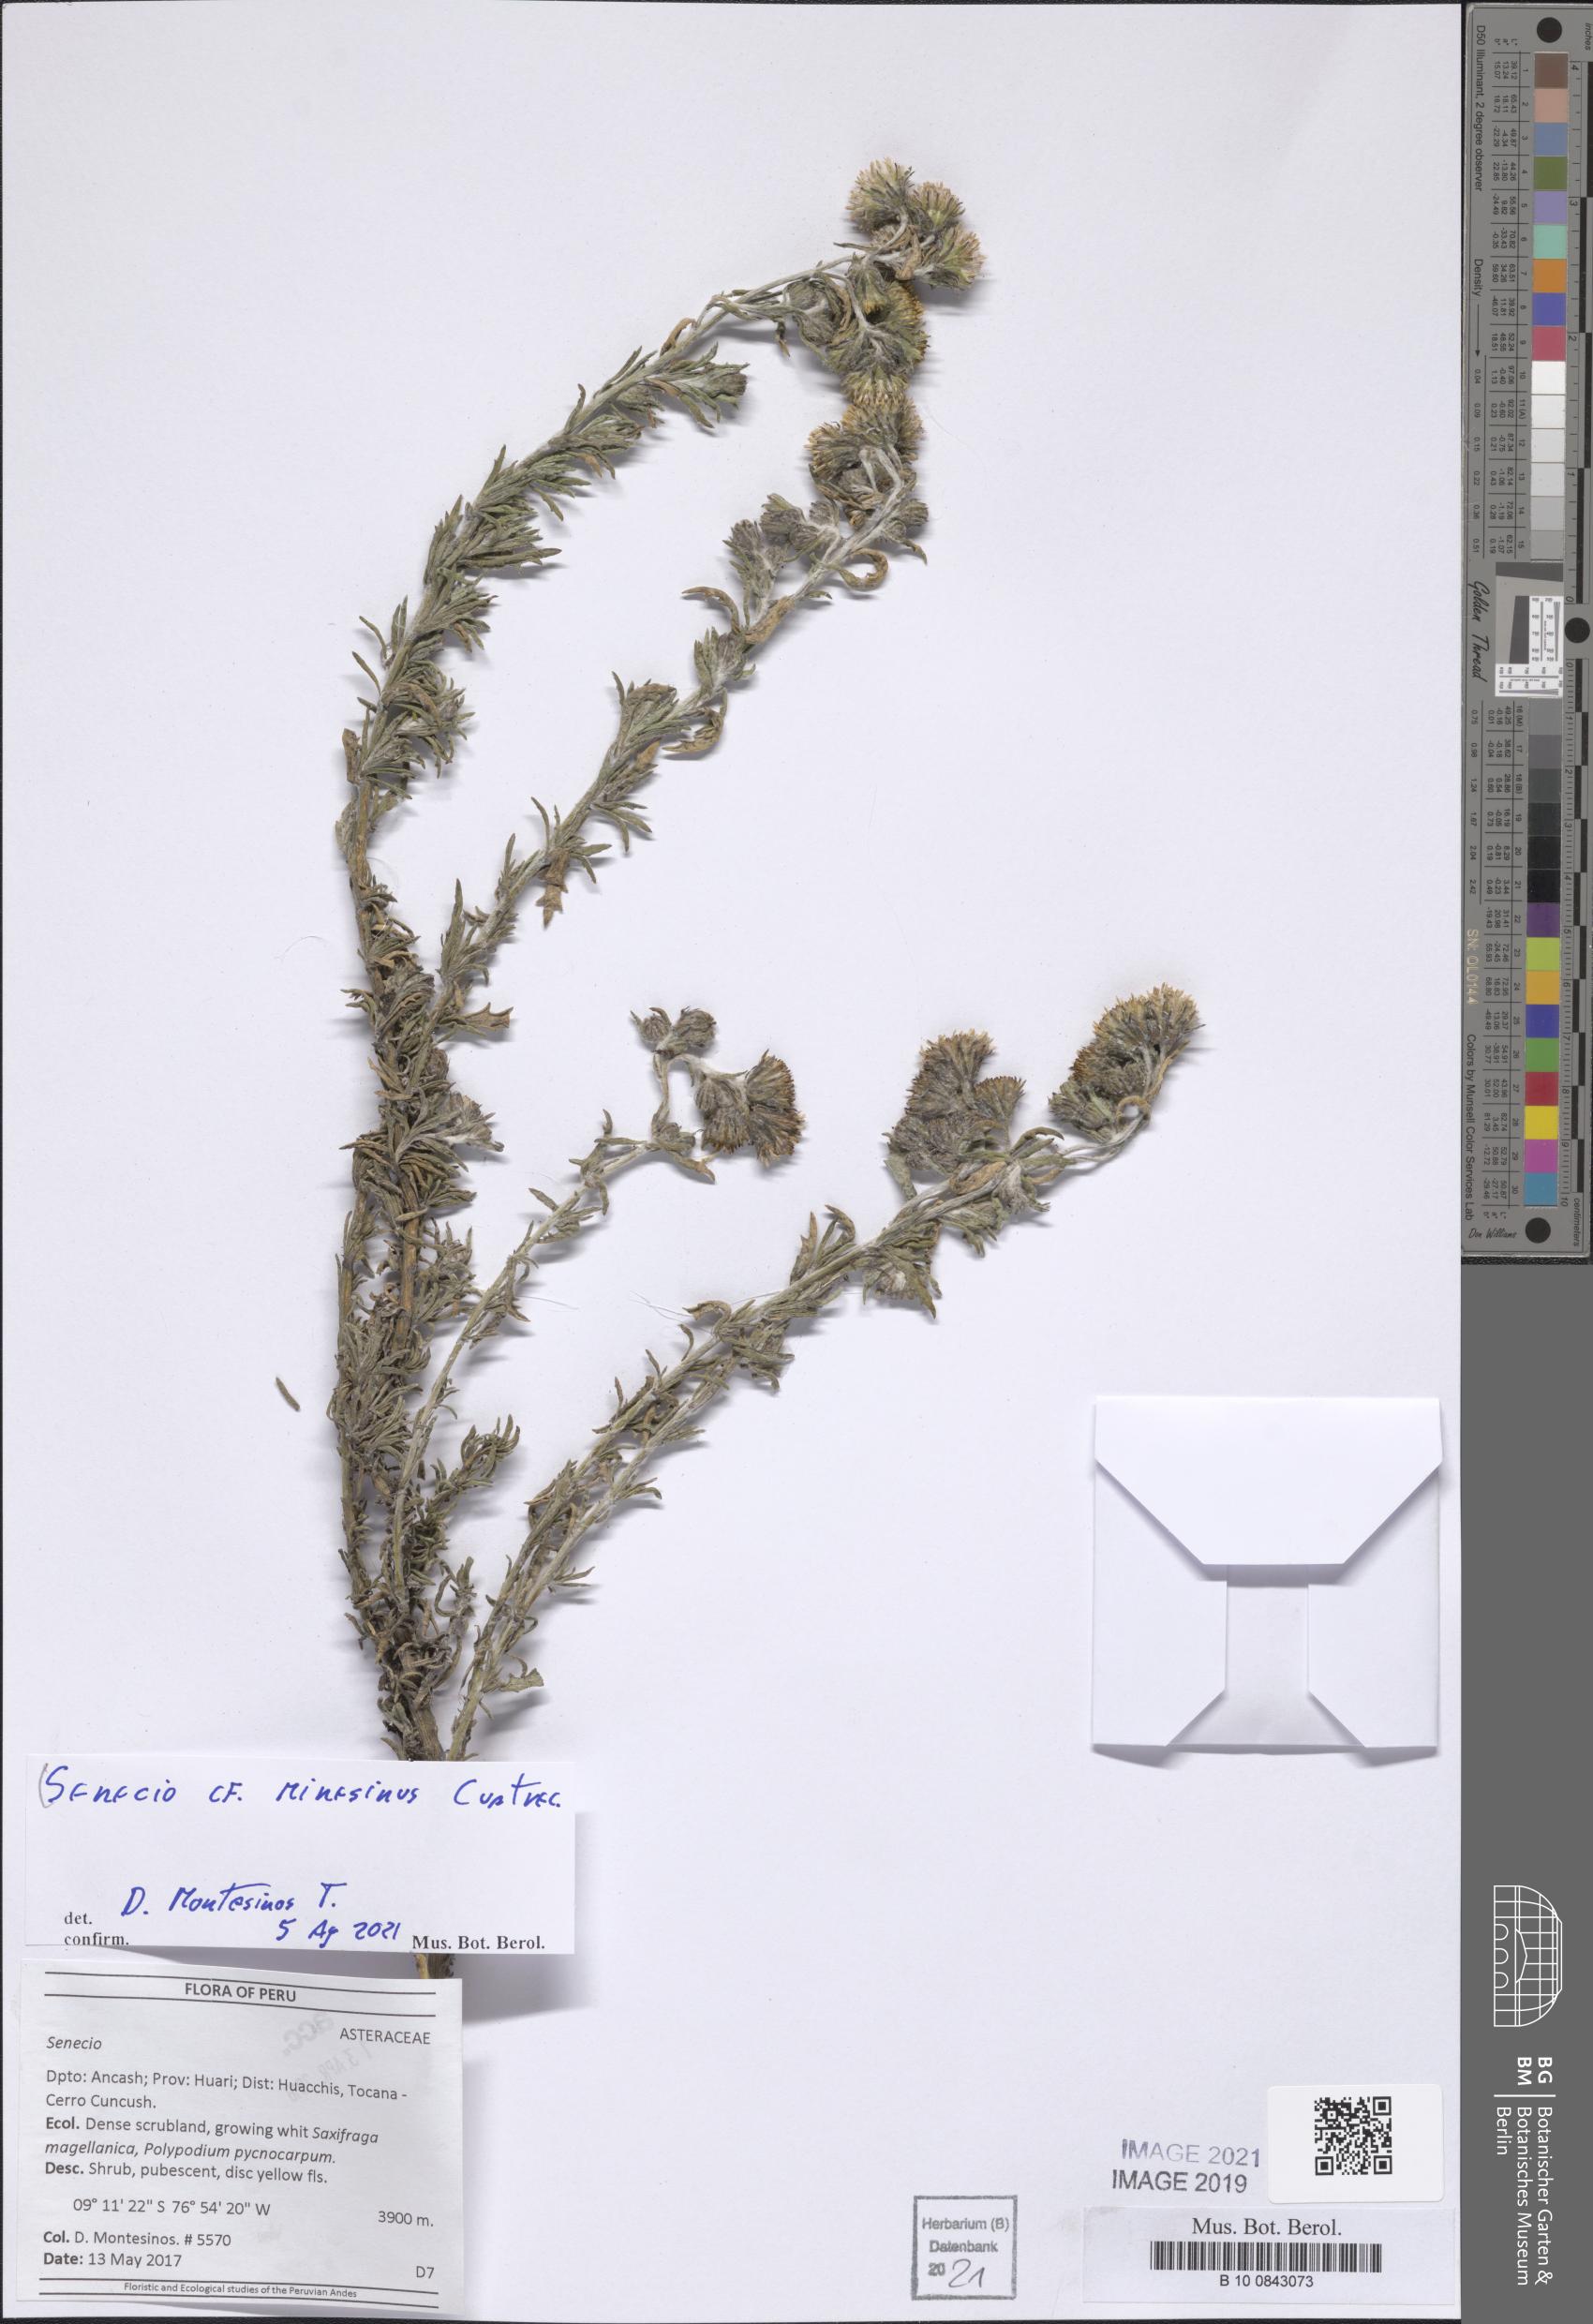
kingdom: Plantae
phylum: Tracheophyta
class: Magnoliopsida
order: Asterales
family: Asteraceae
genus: Senecio
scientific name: Senecio minesinus
